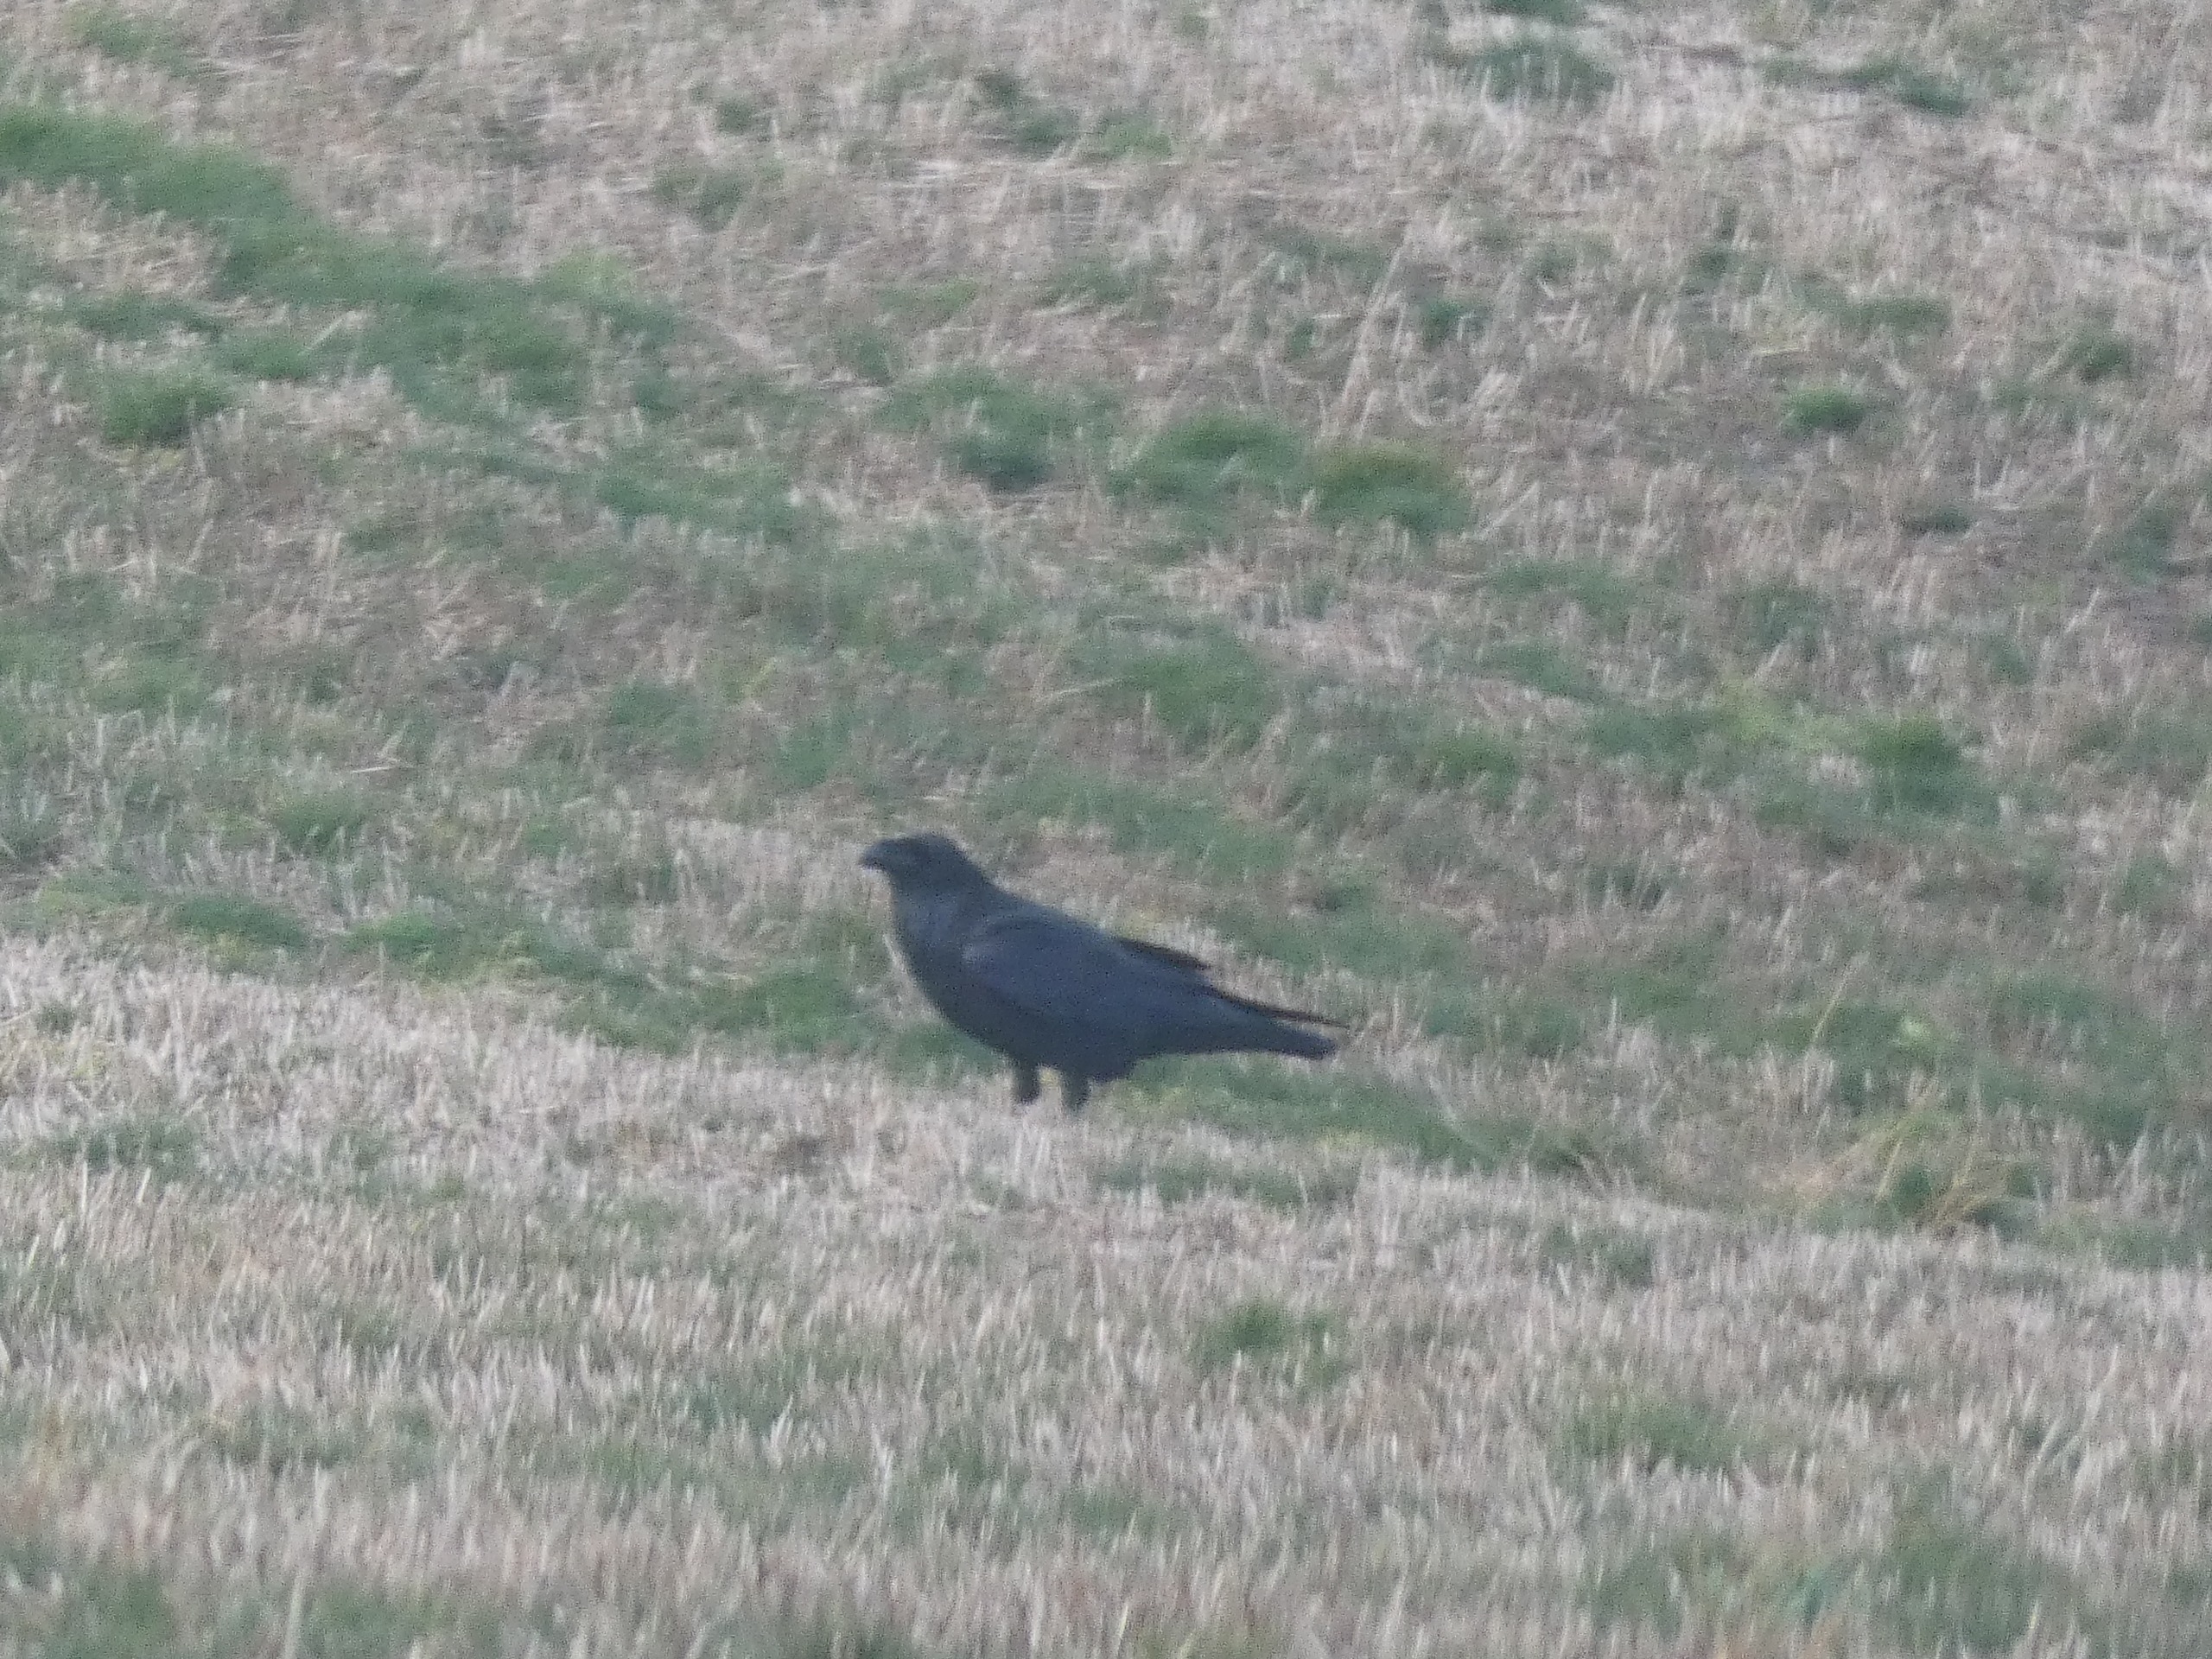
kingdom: Animalia
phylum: Chordata
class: Aves
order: Passeriformes
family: Corvidae
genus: Corvus
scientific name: Corvus corax
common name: Ravn
